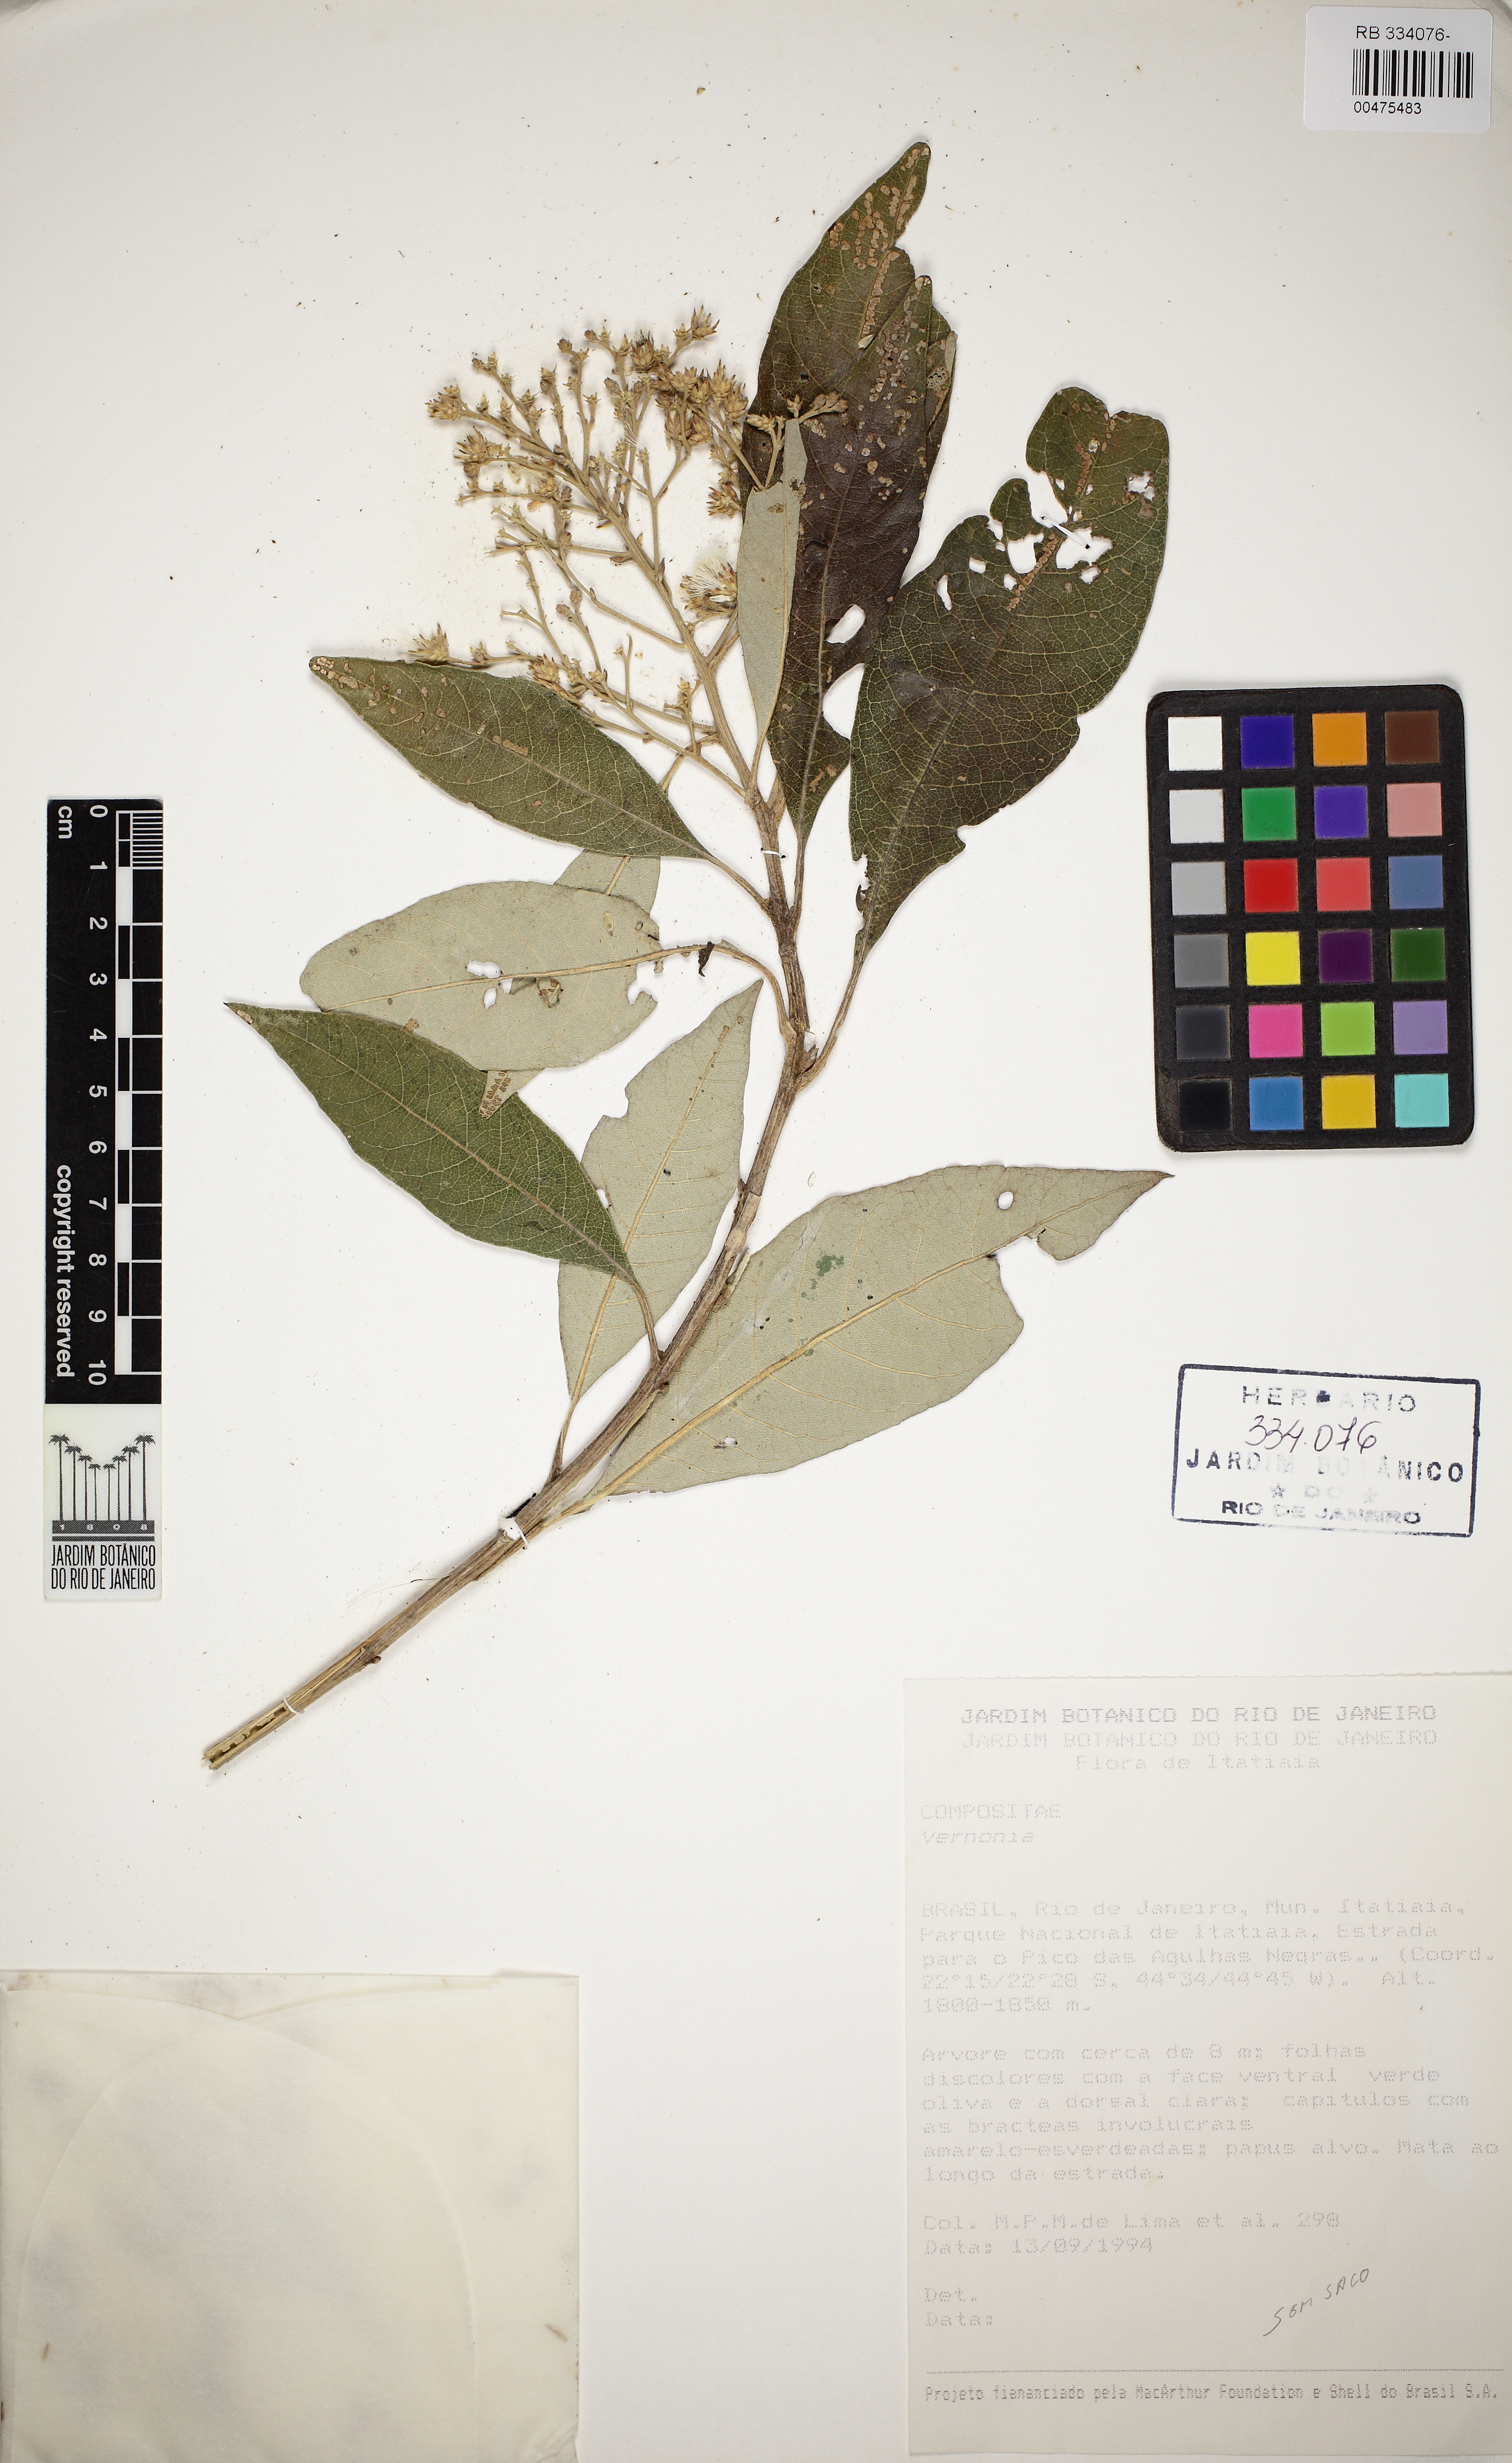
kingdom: Plantae
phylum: Tracheophyta
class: Magnoliopsida
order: Asterales
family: Asteraceae
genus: Vernonia
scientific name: Vernonia
